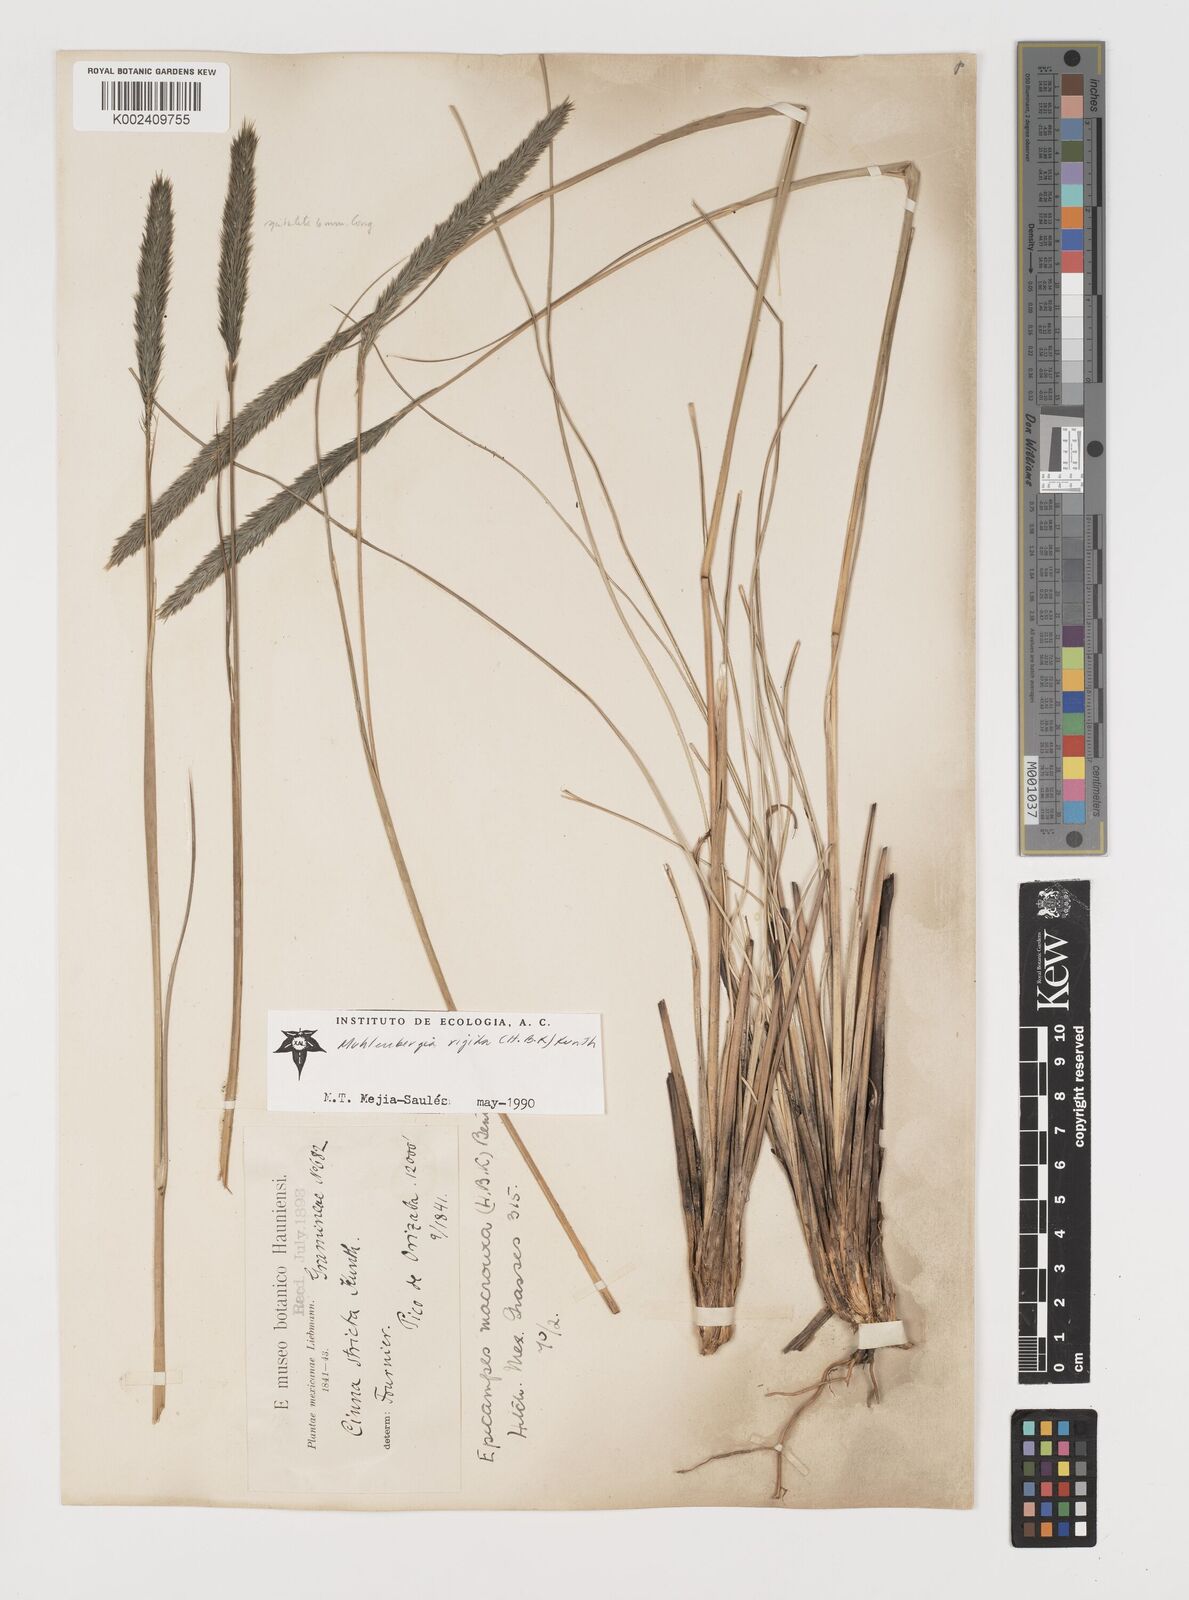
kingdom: Plantae
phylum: Tracheophyta
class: Liliopsida
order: Poales
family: Poaceae
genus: Muhlenbergia
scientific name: Muhlenbergia nigra
